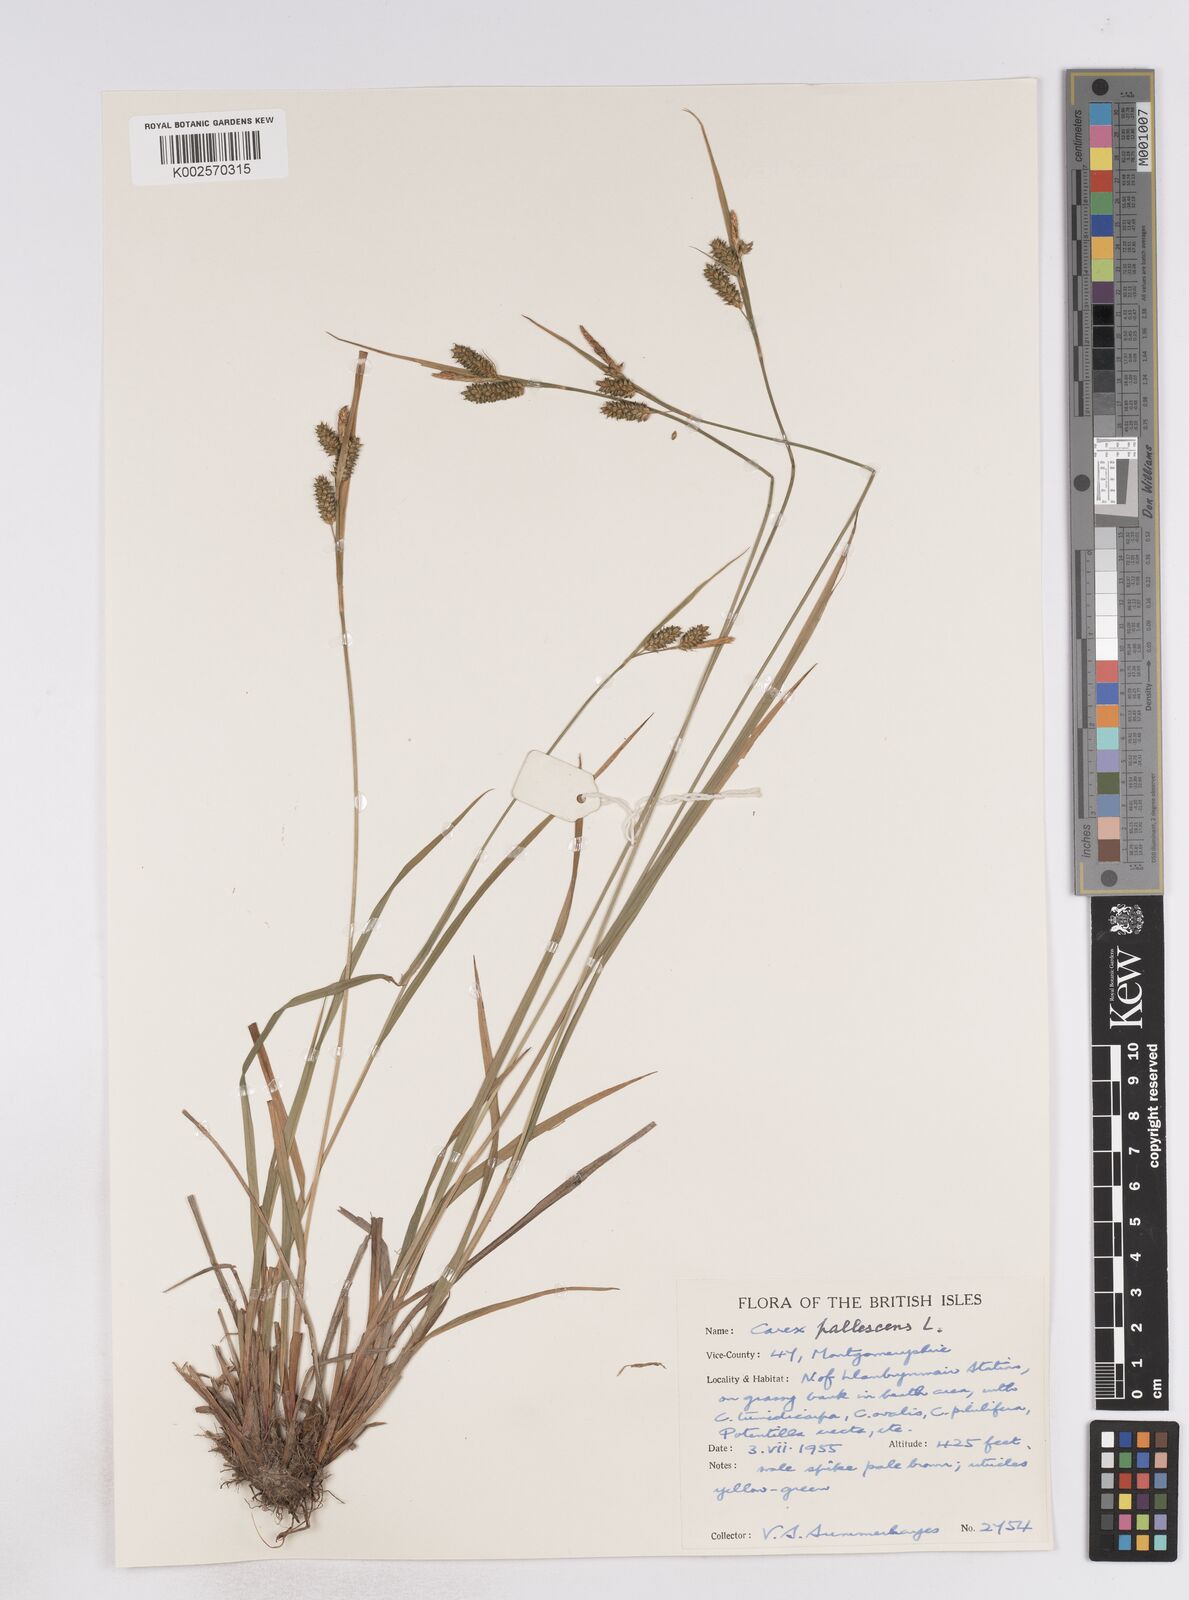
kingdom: Plantae
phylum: Tracheophyta
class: Liliopsida
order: Poales
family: Cyperaceae
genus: Carex
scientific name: Carex pallescens
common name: Pale sedge
